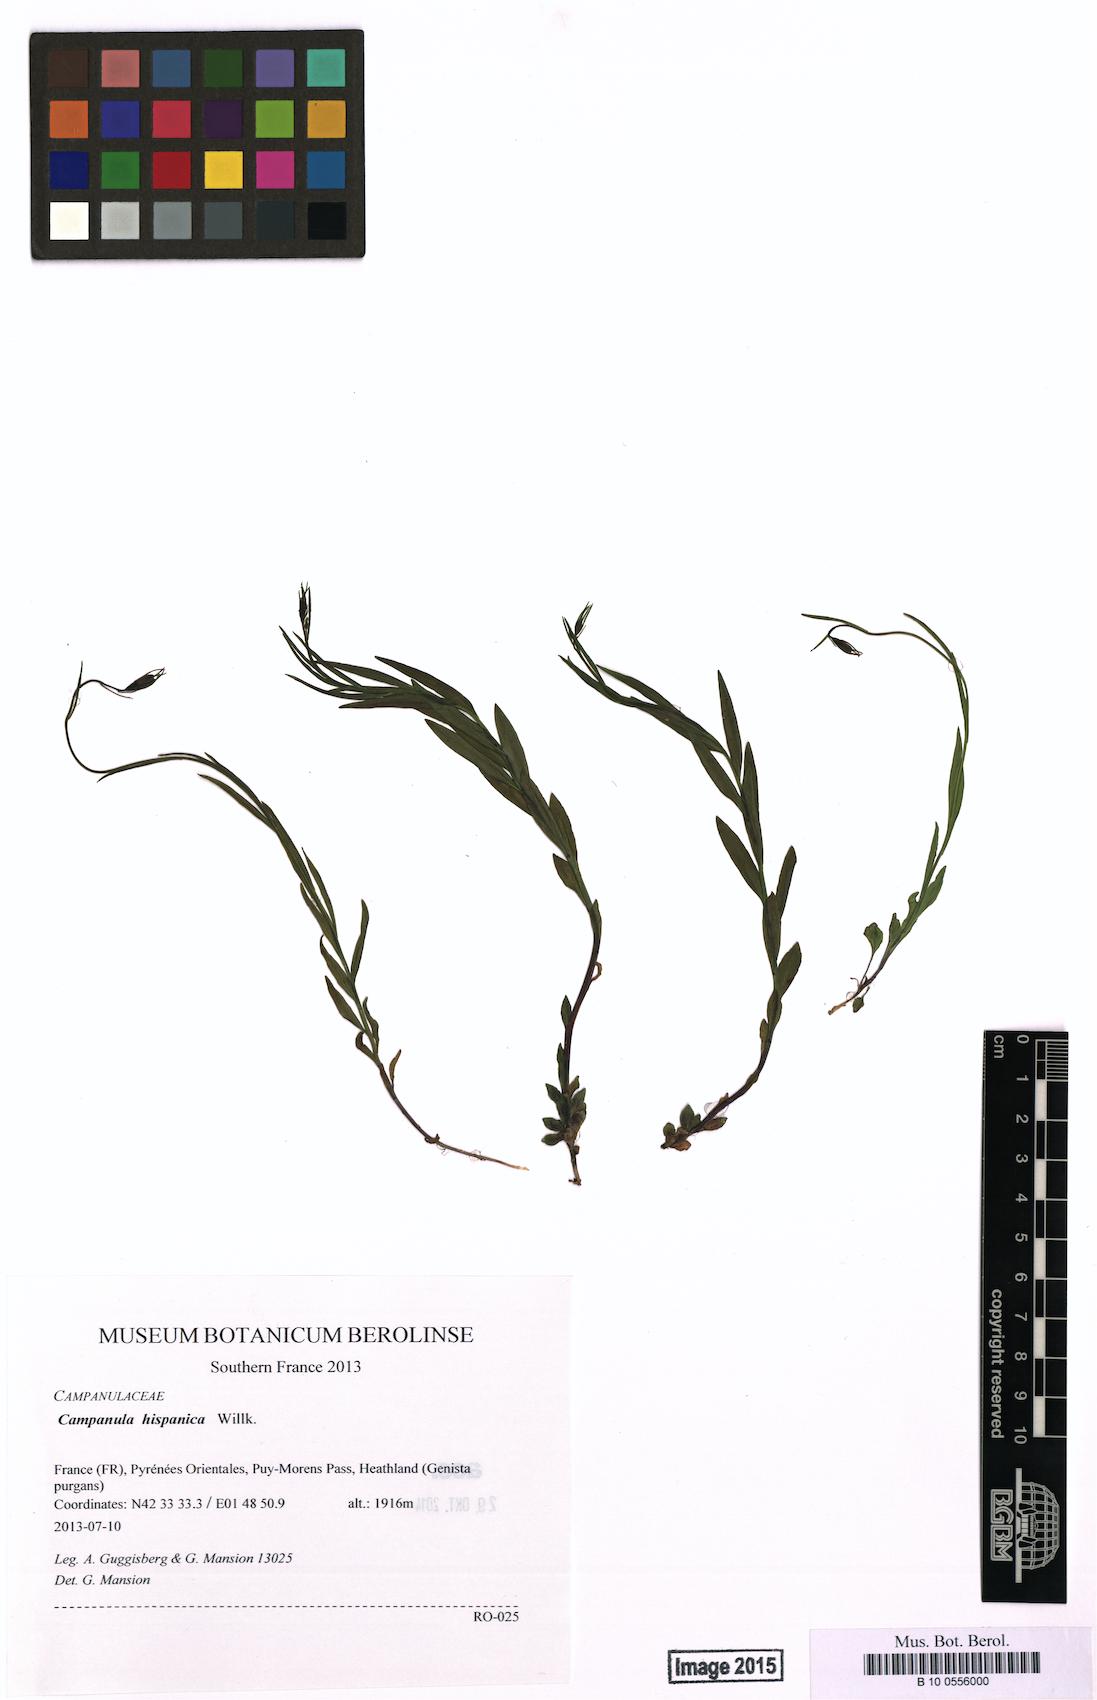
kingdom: Plantae
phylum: Tracheophyta
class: Magnoliopsida
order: Asterales
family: Campanulaceae
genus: Campanula
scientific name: Campanula hispanica
